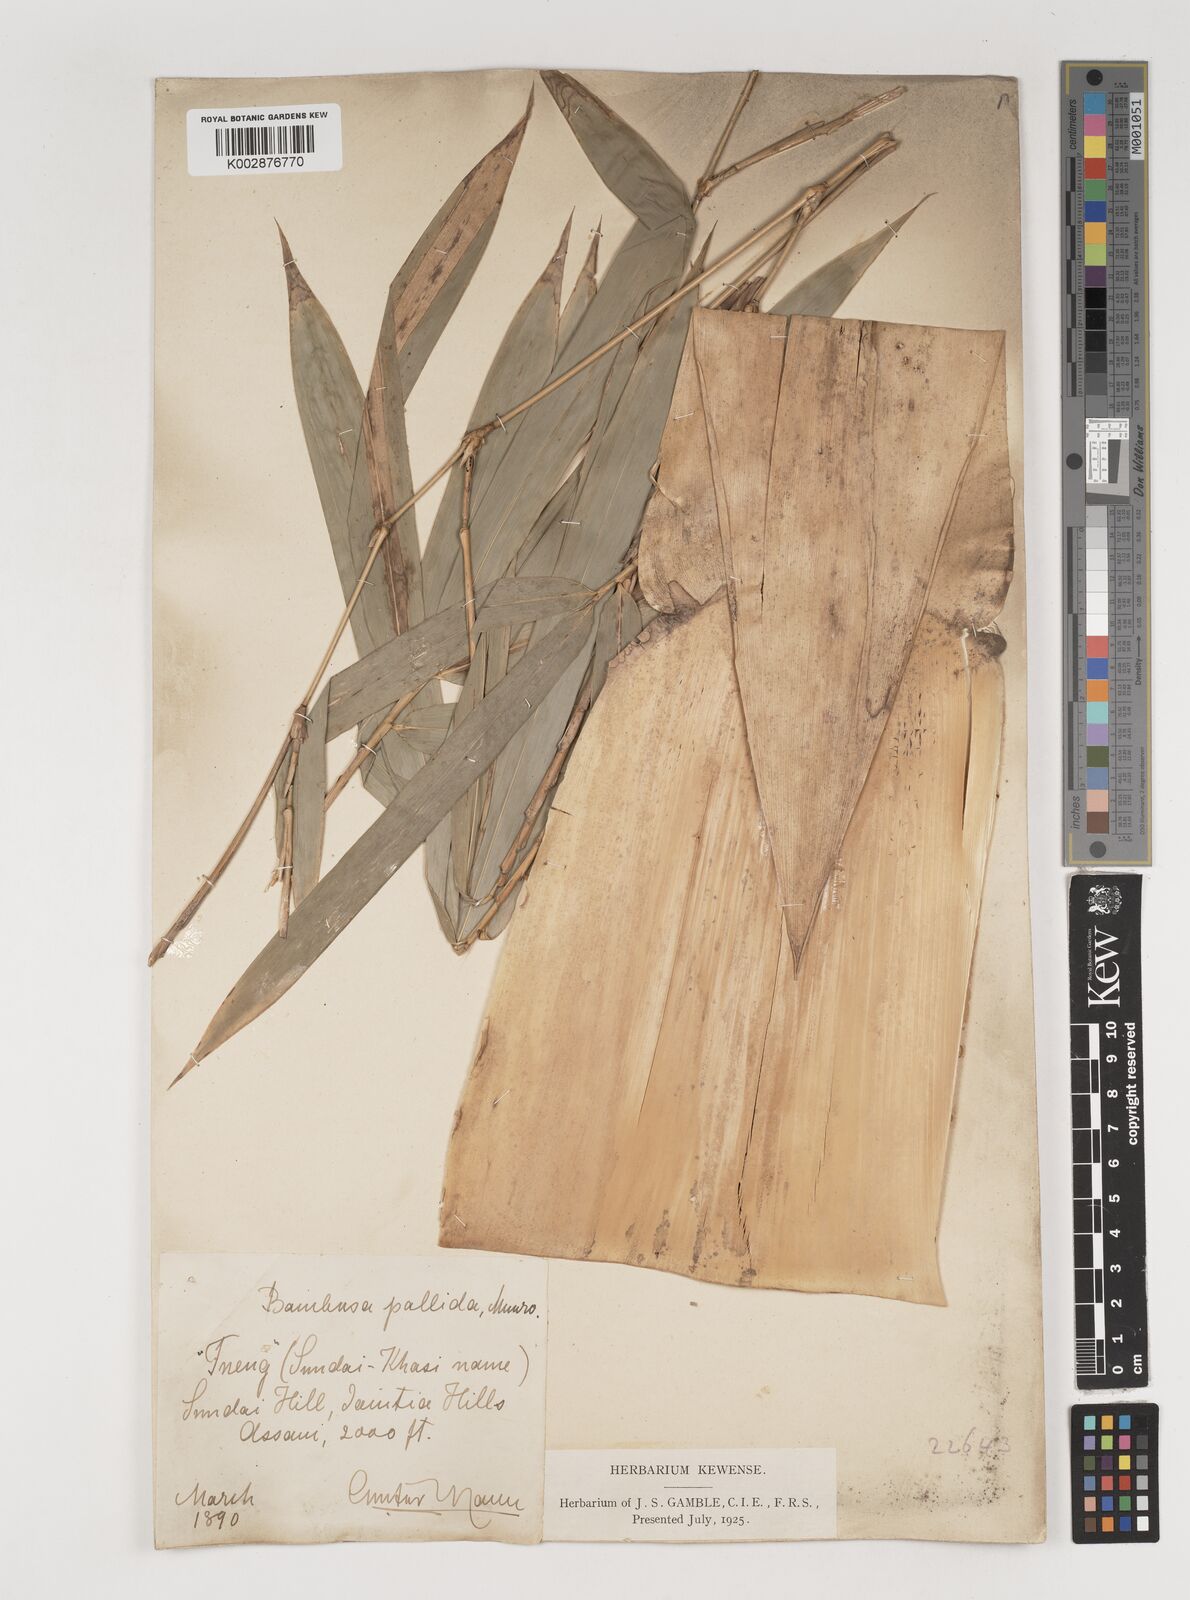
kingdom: Plantae
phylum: Tracheophyta
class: Liliopsida
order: Poales
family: Poaceae
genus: Bambusa
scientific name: Bambusa pallida
